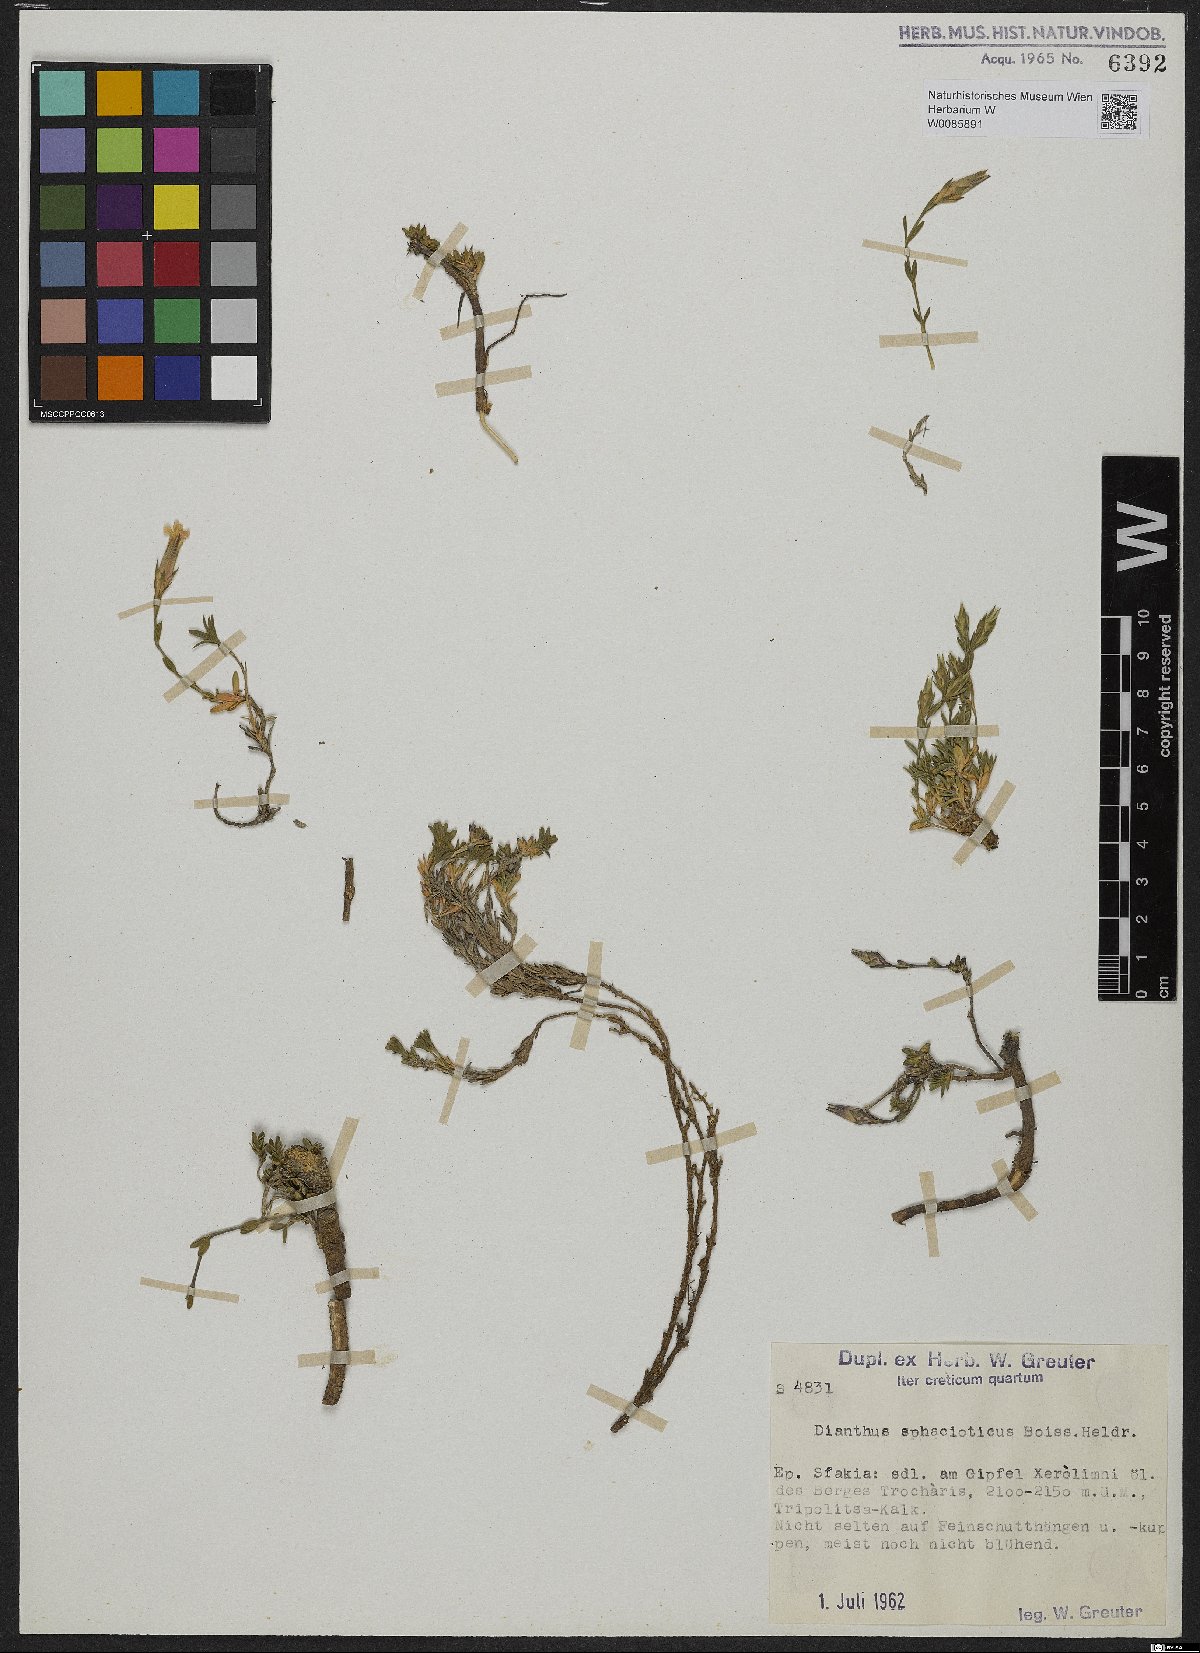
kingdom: Plantae
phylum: Tracheophyta
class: Magnoliopsida
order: Caryophyllales
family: Caryophyllaceae
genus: Dianthus
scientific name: Dianthus sphacioticus
